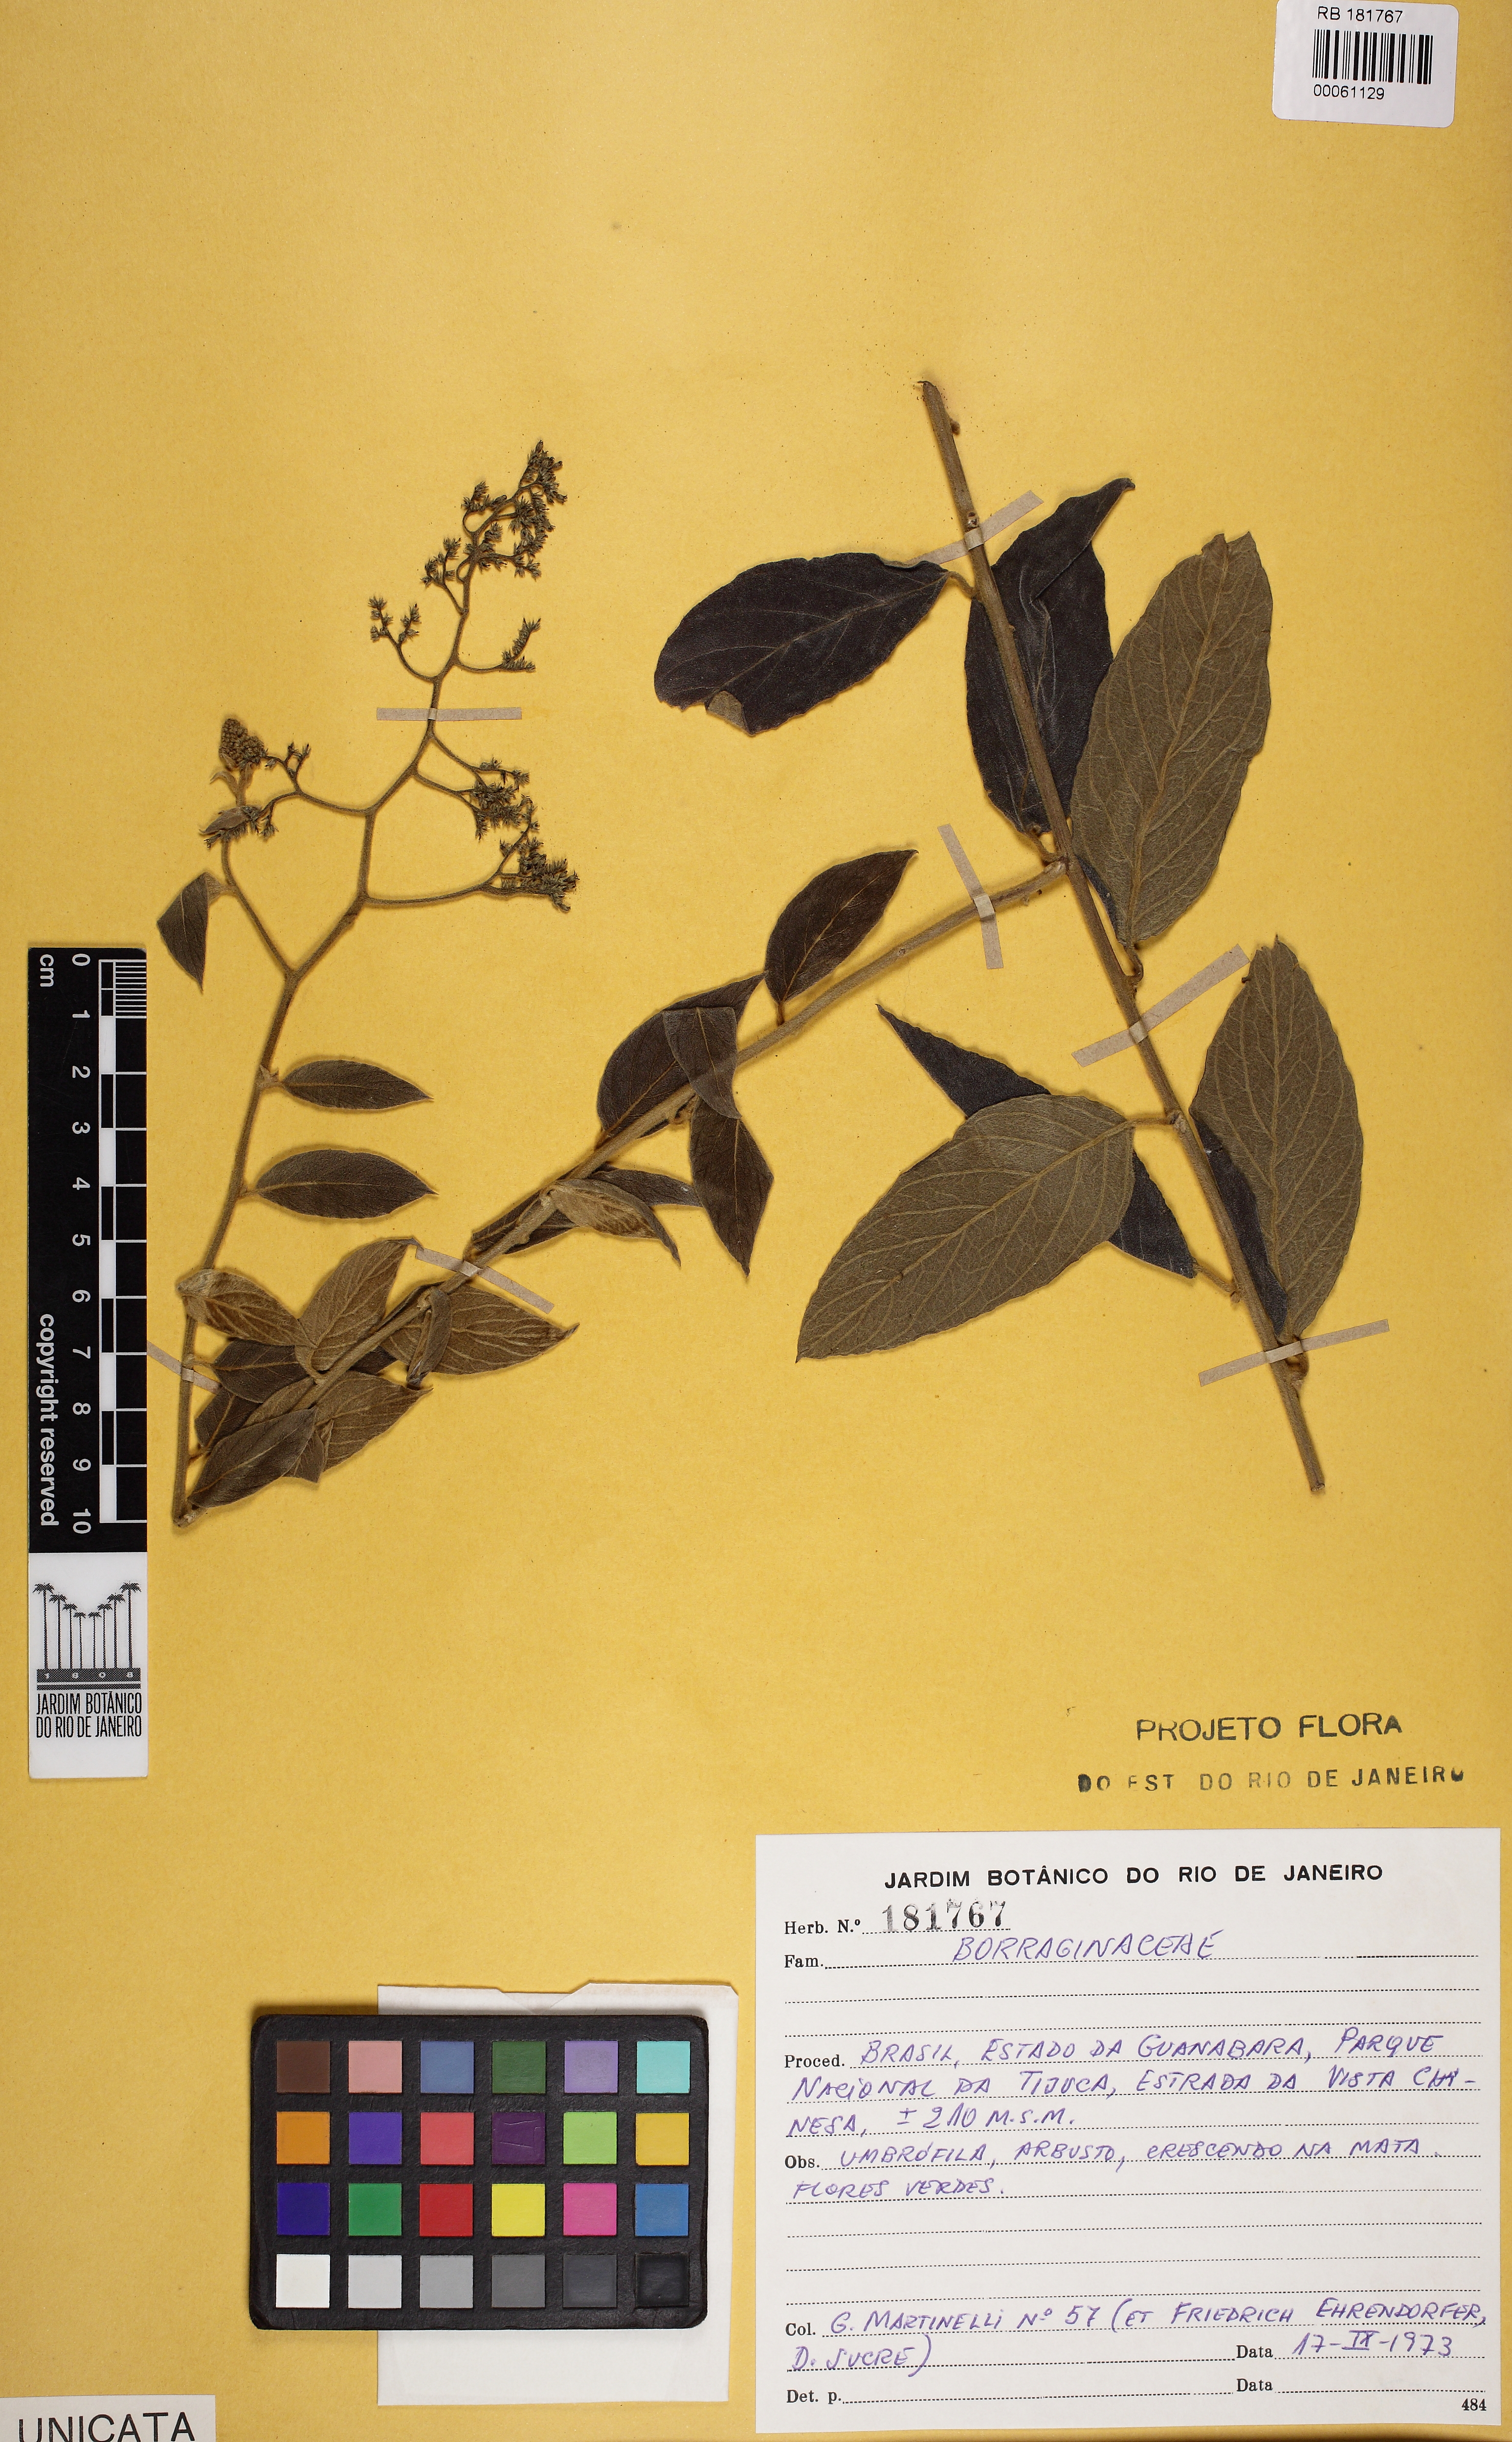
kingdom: Plantae
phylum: Tracheophyta
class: Magnoliopsida
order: Boraginales
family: Heliotropiaceae
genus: Tournefortia
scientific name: Tournefortia villosa
